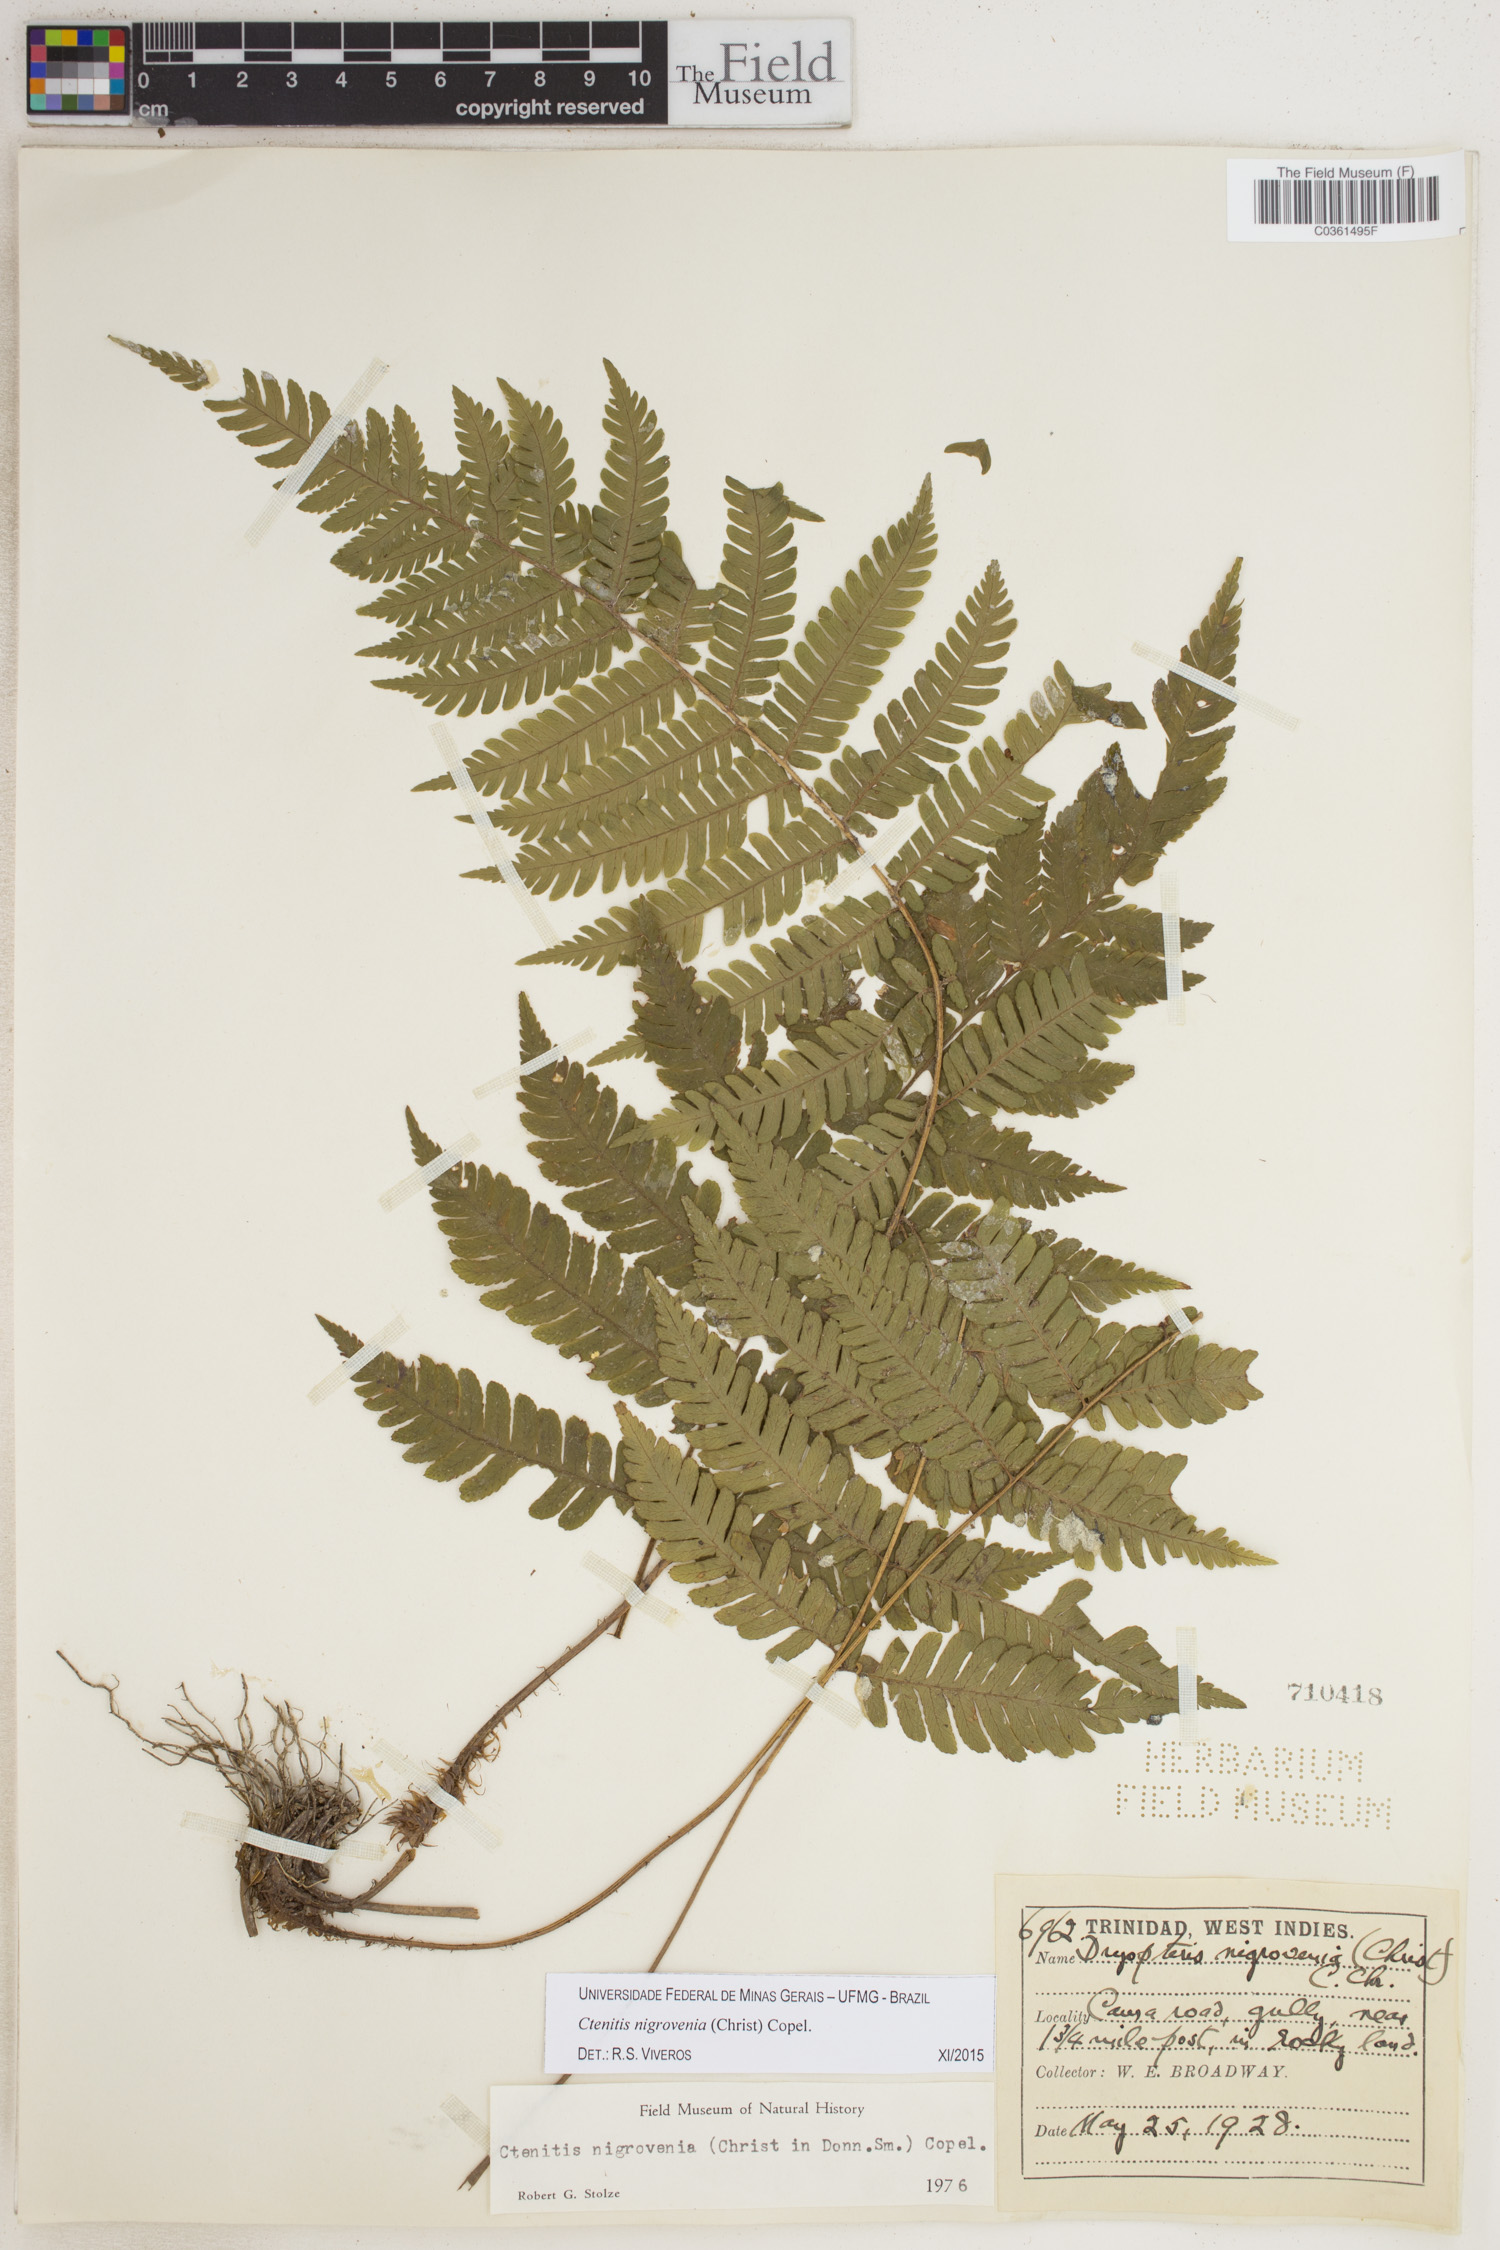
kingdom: Plantae
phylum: Tracheophyta
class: Polypodiopsida
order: Polypodiales
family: Dryopteridaceae
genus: Ctenitis
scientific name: Ctenitis nigrovenia
